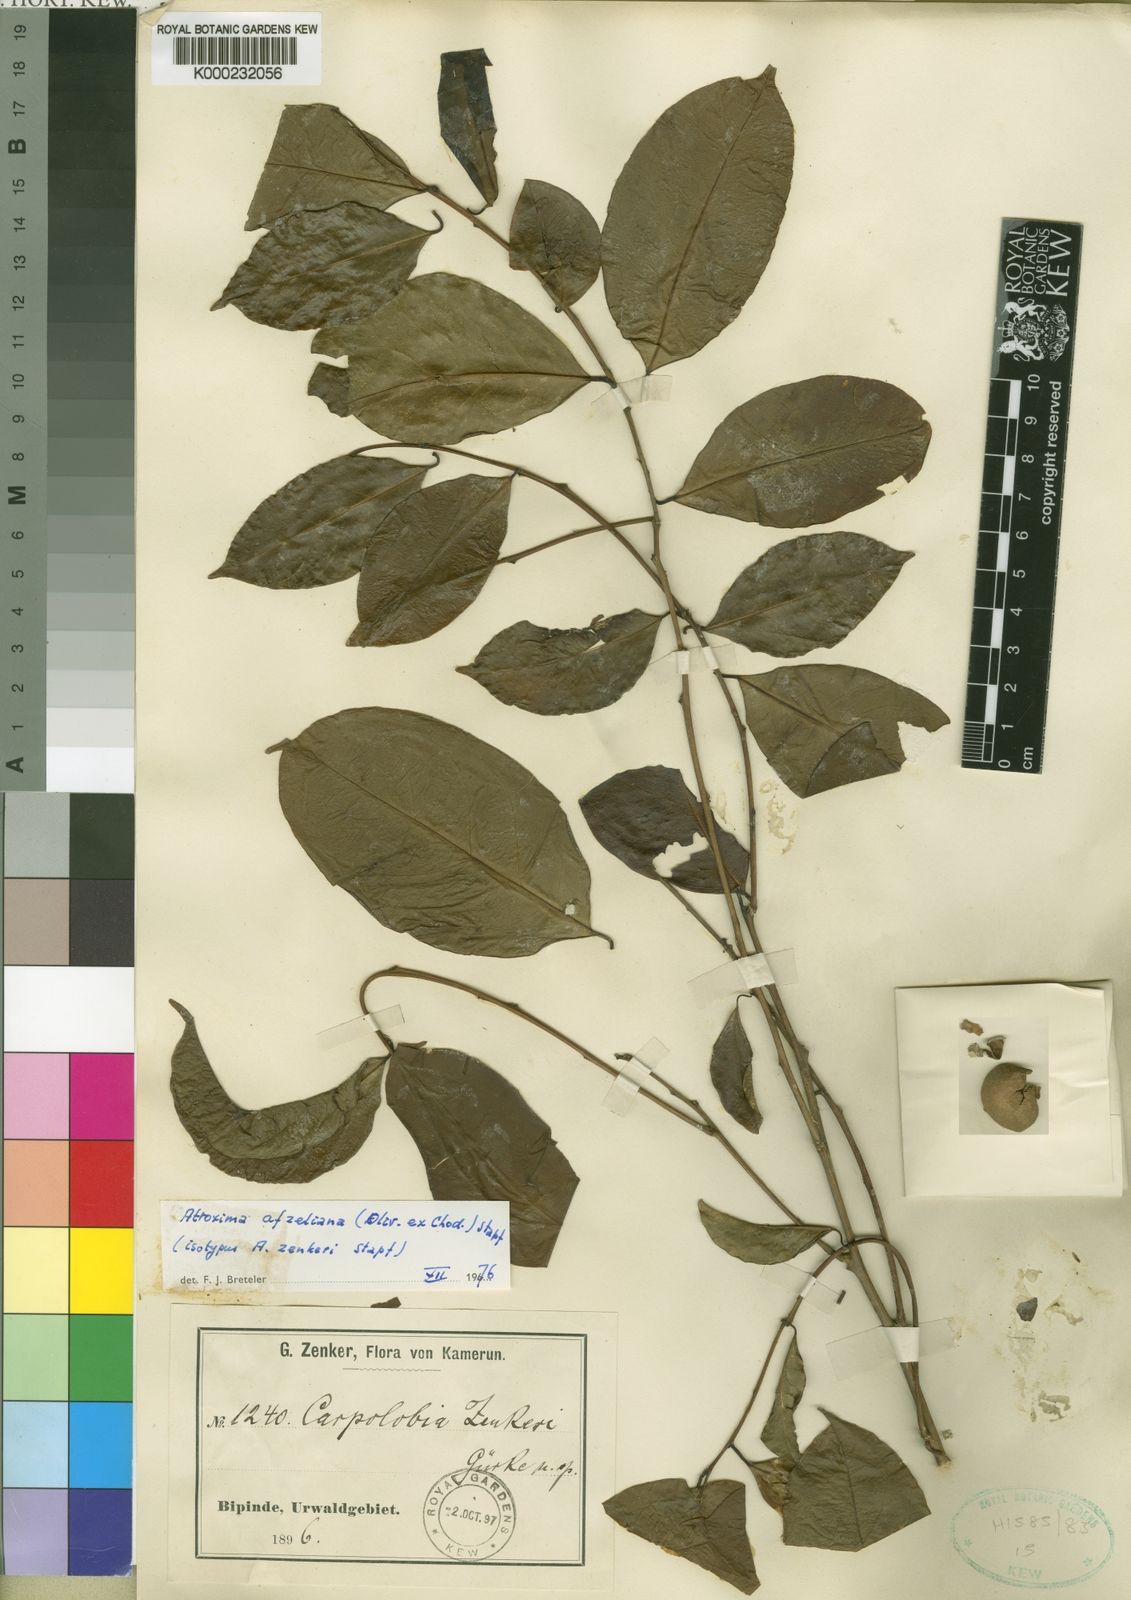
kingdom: Plantae
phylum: Tracheophyta
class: Magnoliopsida
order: Fabales
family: Polygalaceae
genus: Atroxima
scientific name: Atroxima afzeliana
